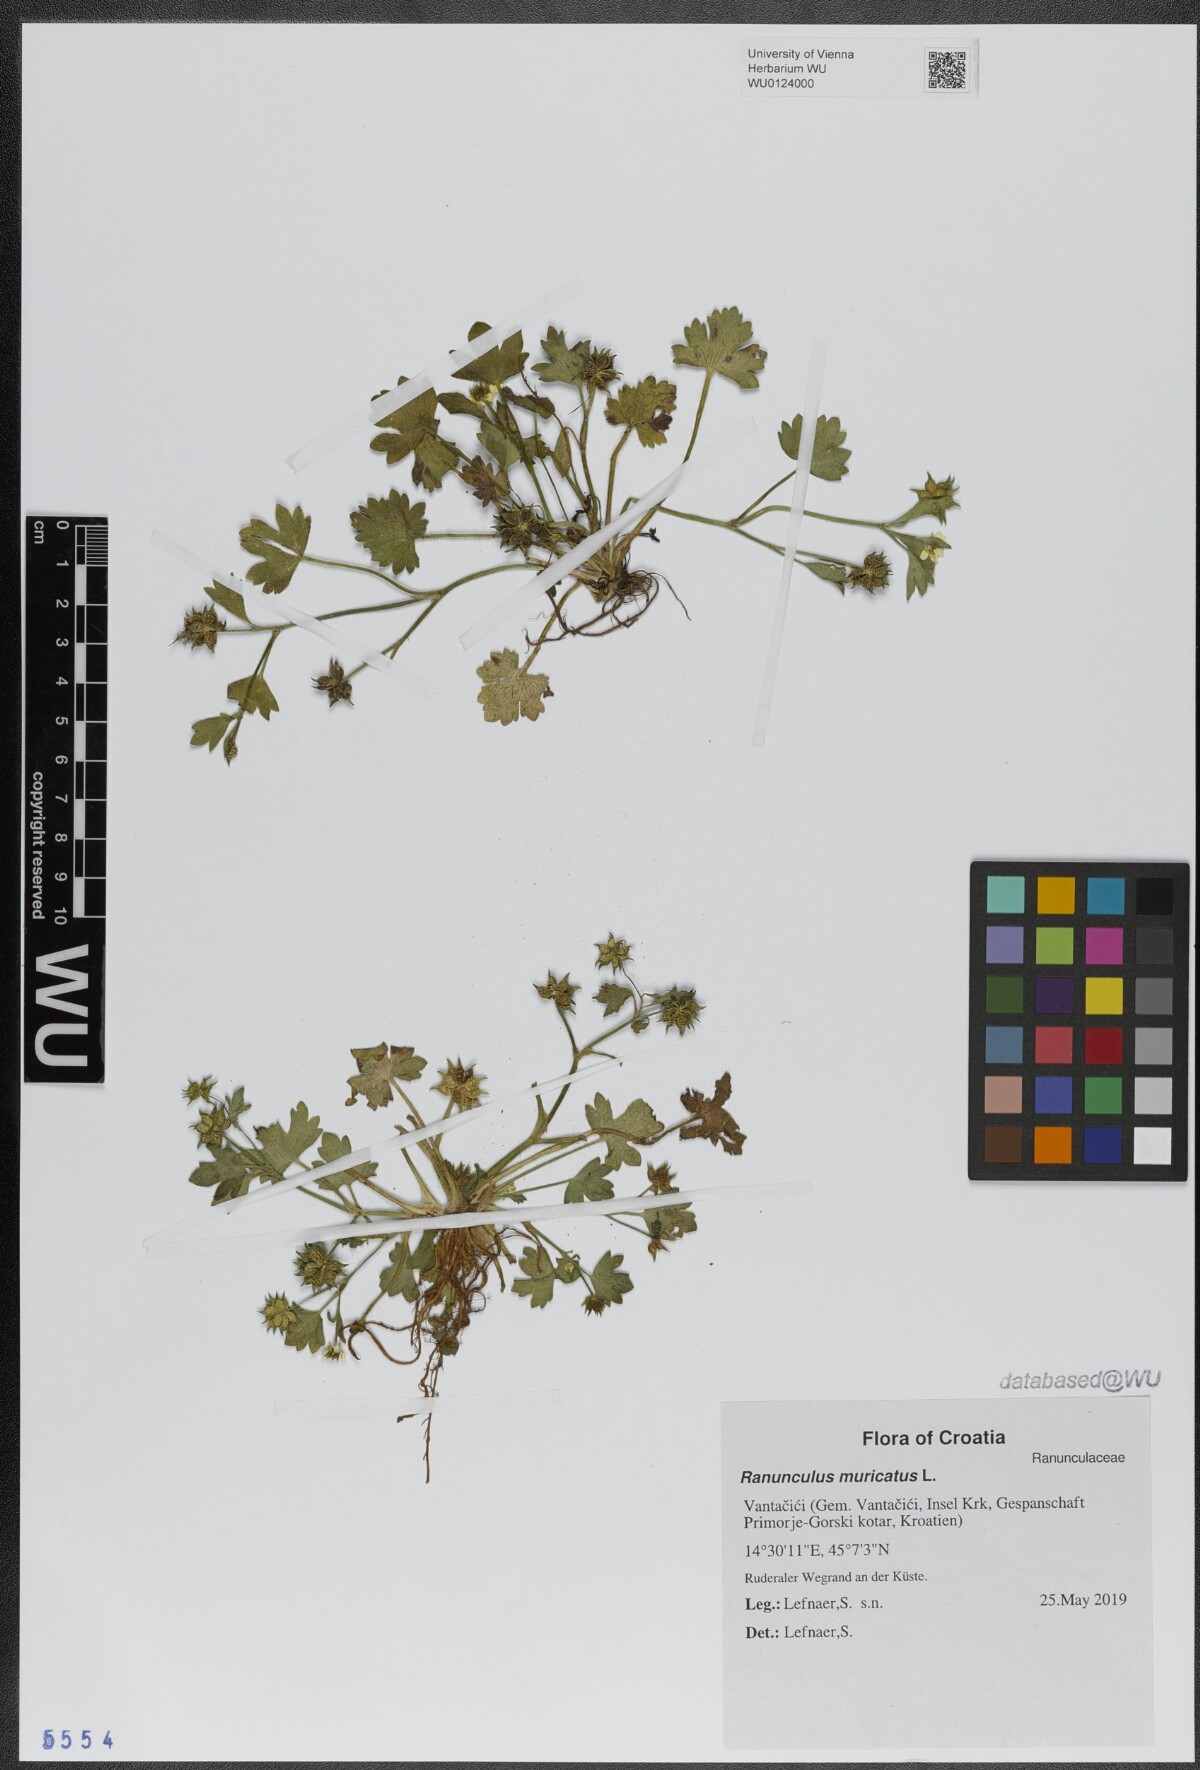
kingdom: Plantae
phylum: Tracheophyta
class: Magnoliopsida
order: Ranunculales
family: Ranunculaceae
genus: Ranunculus
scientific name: Ranunculus muricatus
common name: Rough-fruited buttercup
